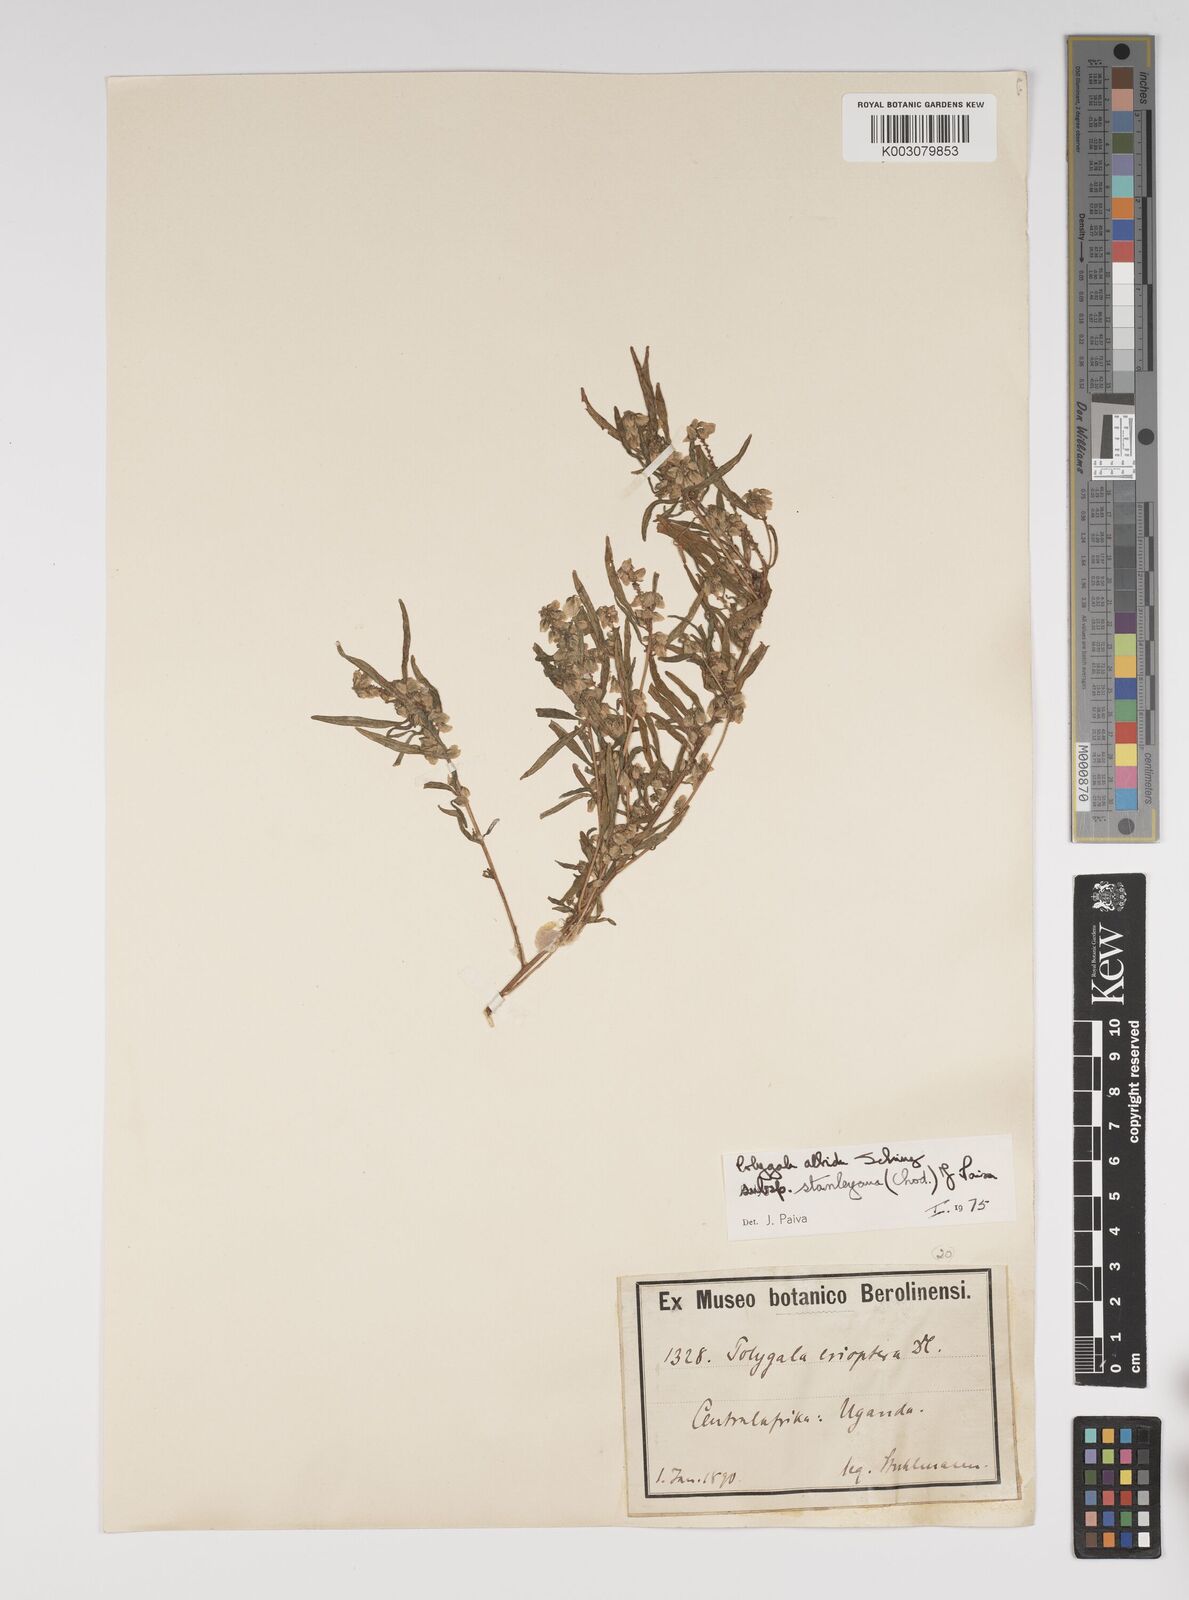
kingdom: Plantae
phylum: Tracheophyta
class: Magnoliopsida
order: Fabales
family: Polygalaceae
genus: Polygala
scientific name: Polygala albida
